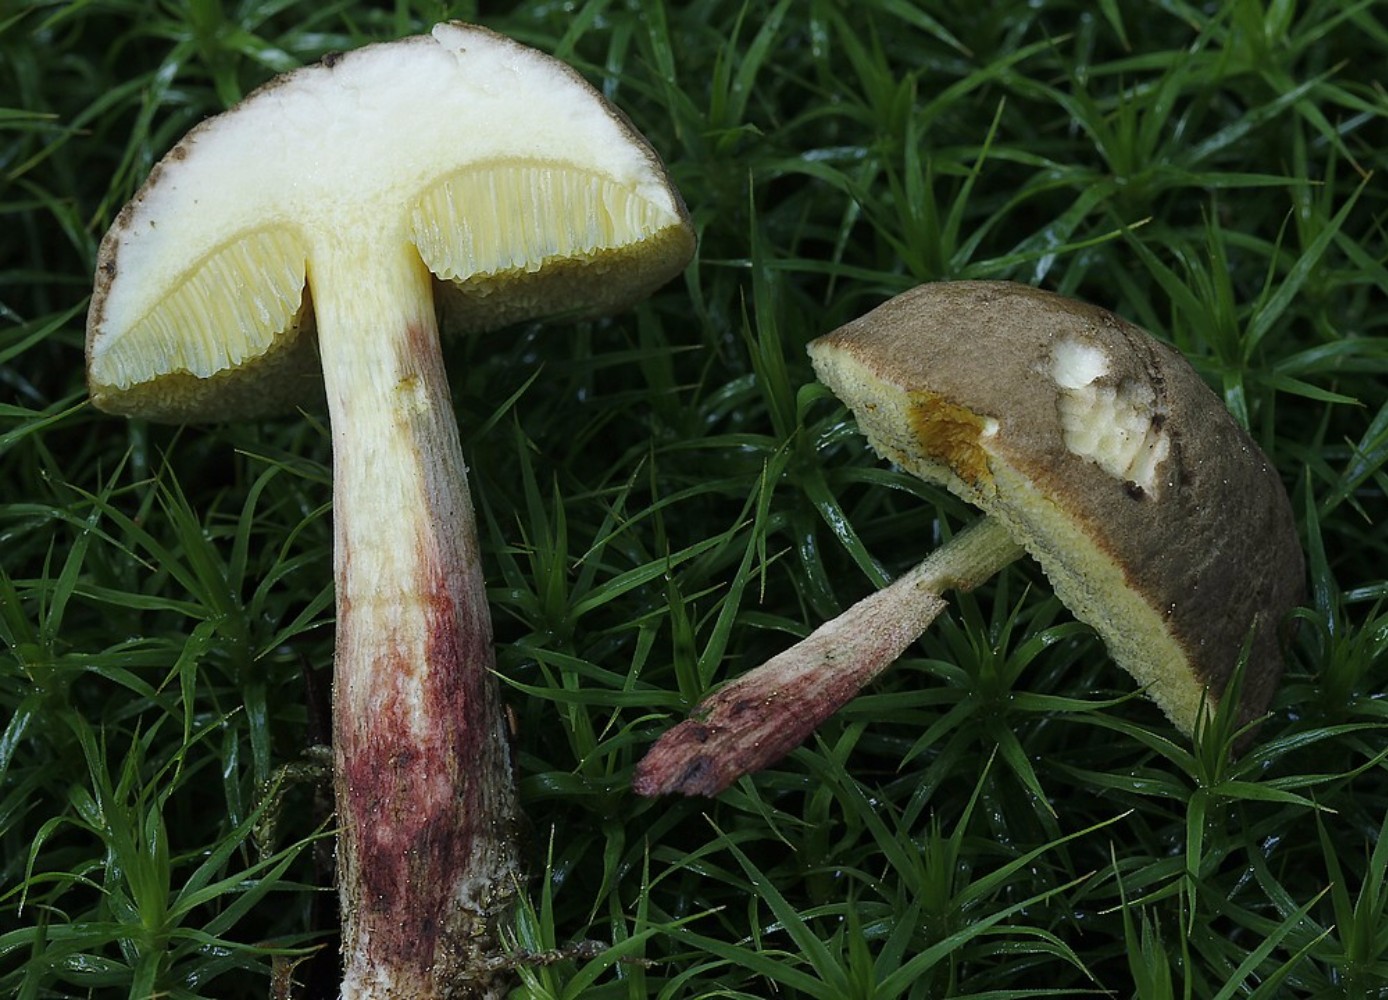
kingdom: Fungi
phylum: Basidiomycota
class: Agaricomycetes
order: Boletales
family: Boletaceae
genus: Xerocomellus
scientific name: Xerocomellus
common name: dværgrørhat
